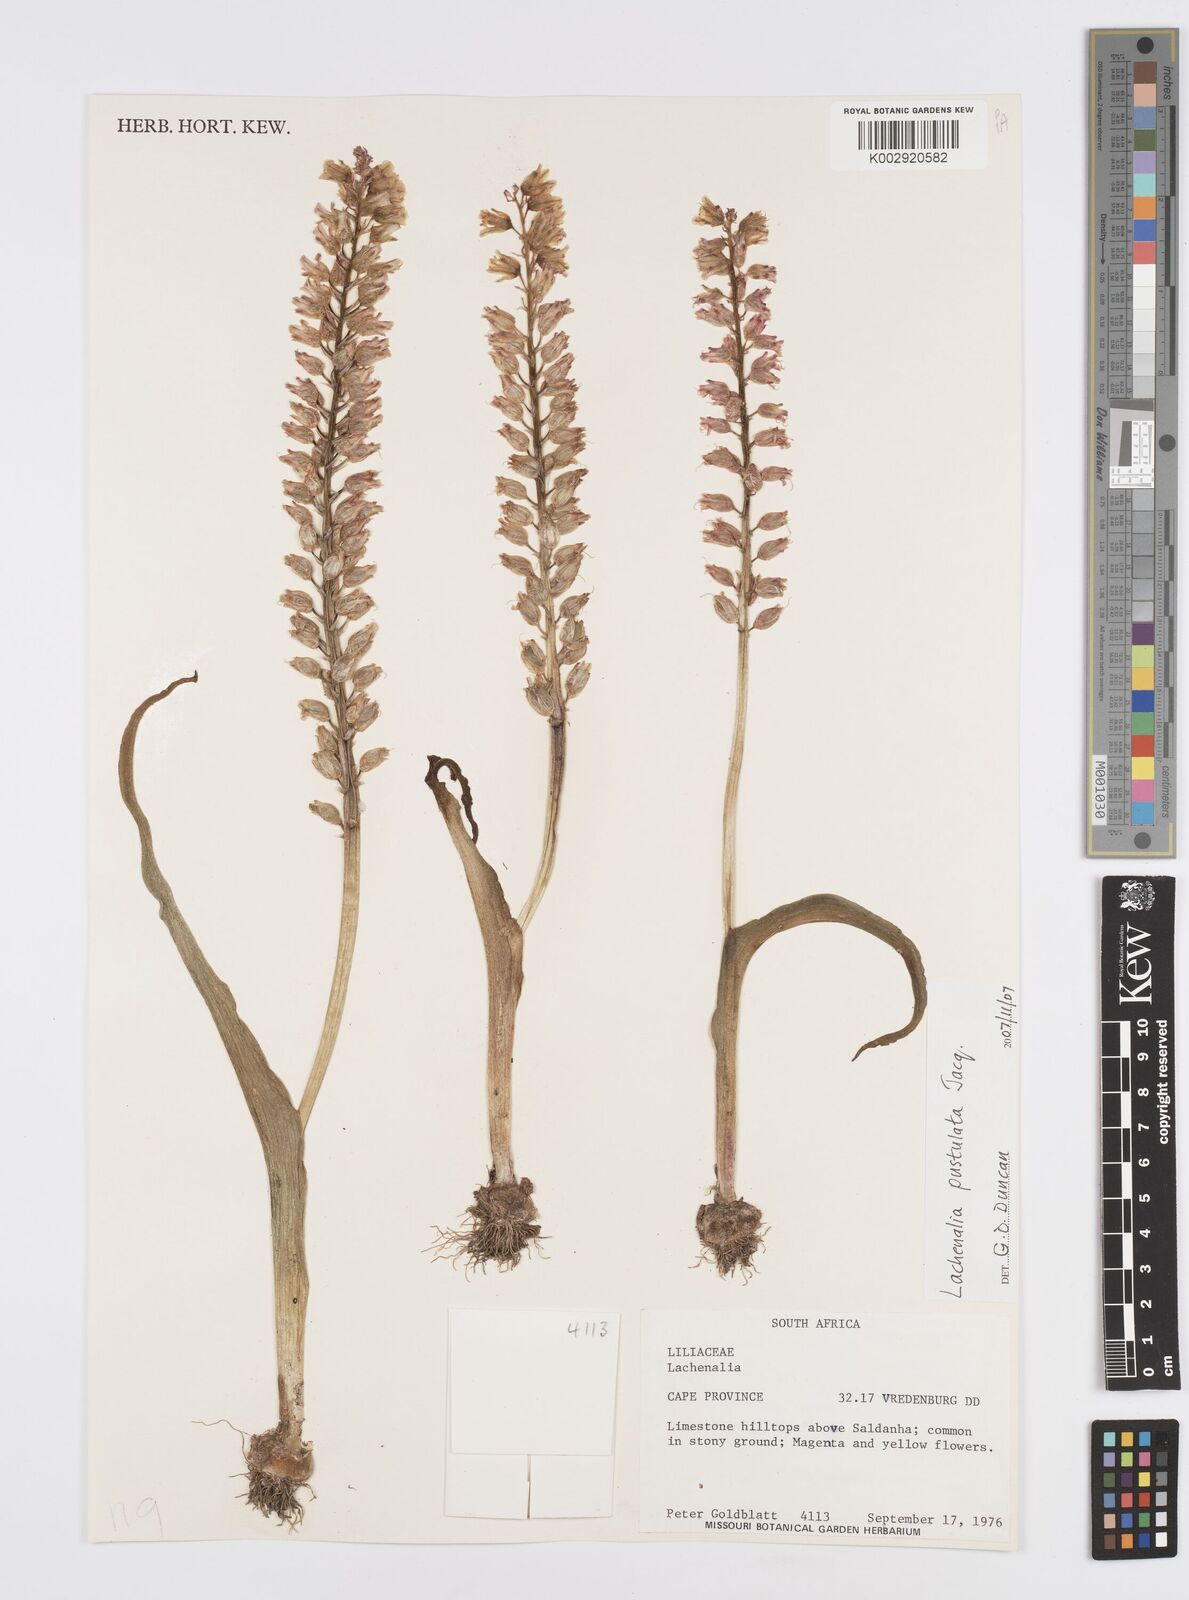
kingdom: Plantae
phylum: Tracheophyta
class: Liliopsida
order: Asparagales
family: Asparagaceae
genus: Lachenalia
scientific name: Lachenalia pallida
